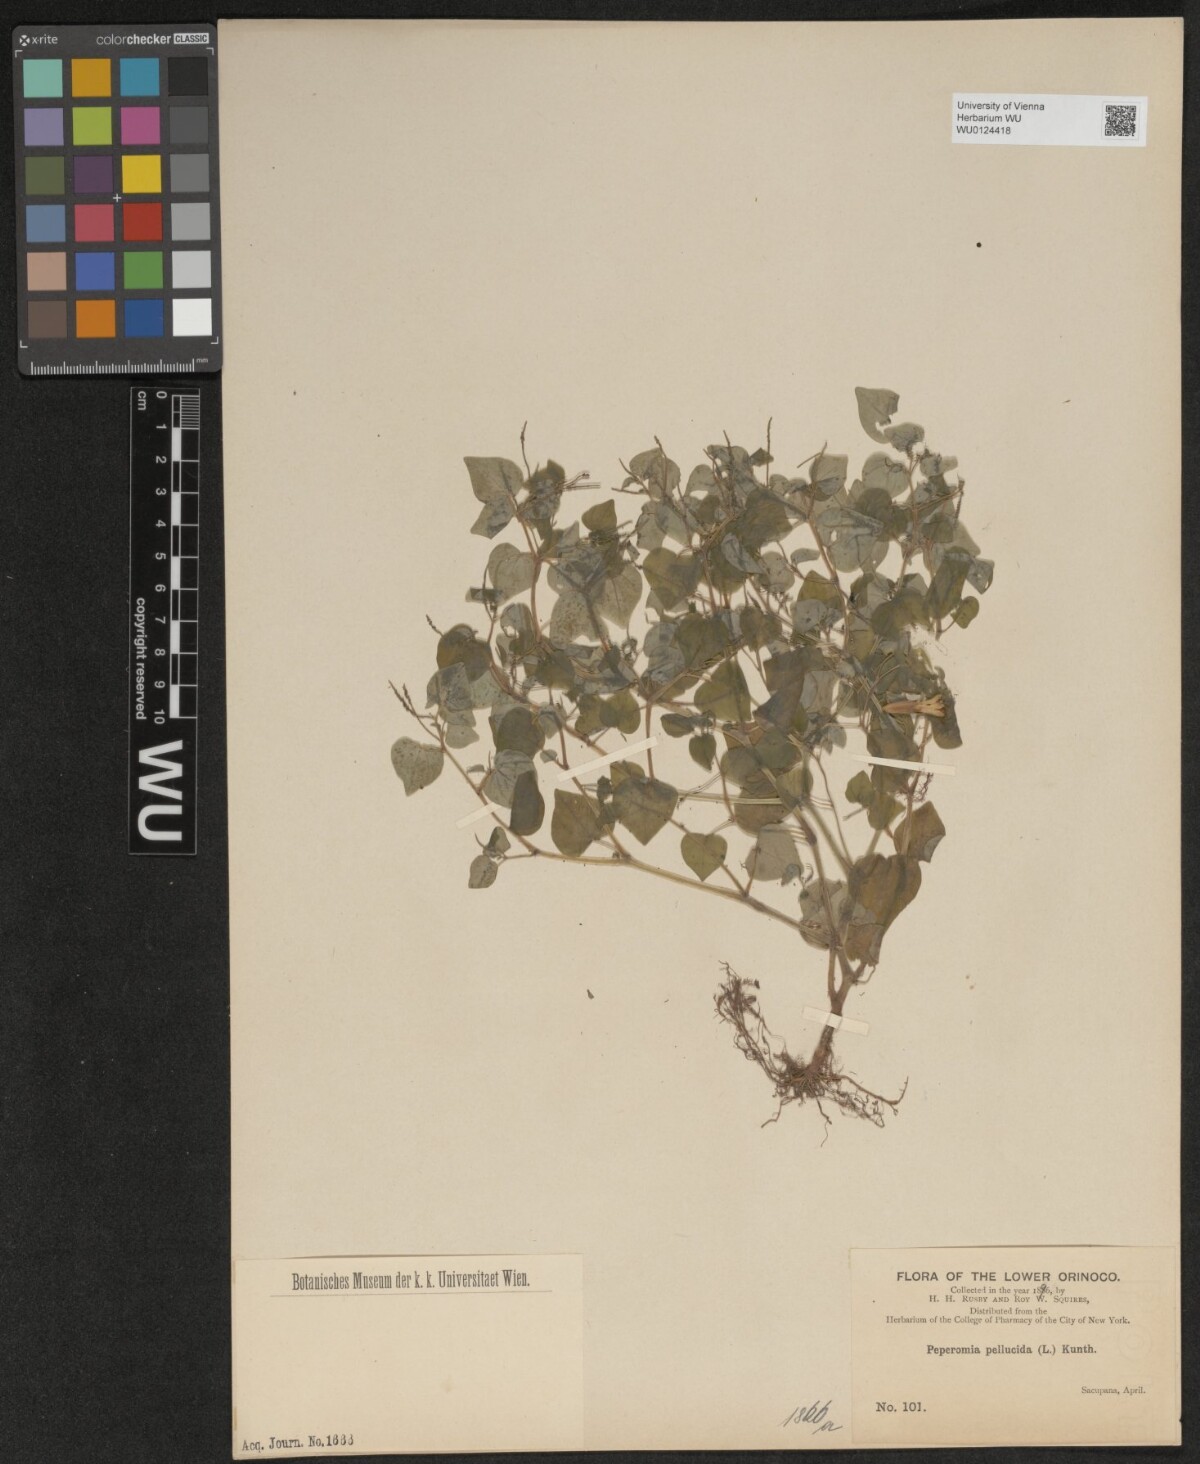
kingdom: Plantae
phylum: Tracheophyta
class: Magnoliopsida
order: Piperales
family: Piperaceae
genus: Peperomia
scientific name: Peperomia pellucida
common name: Man to man
